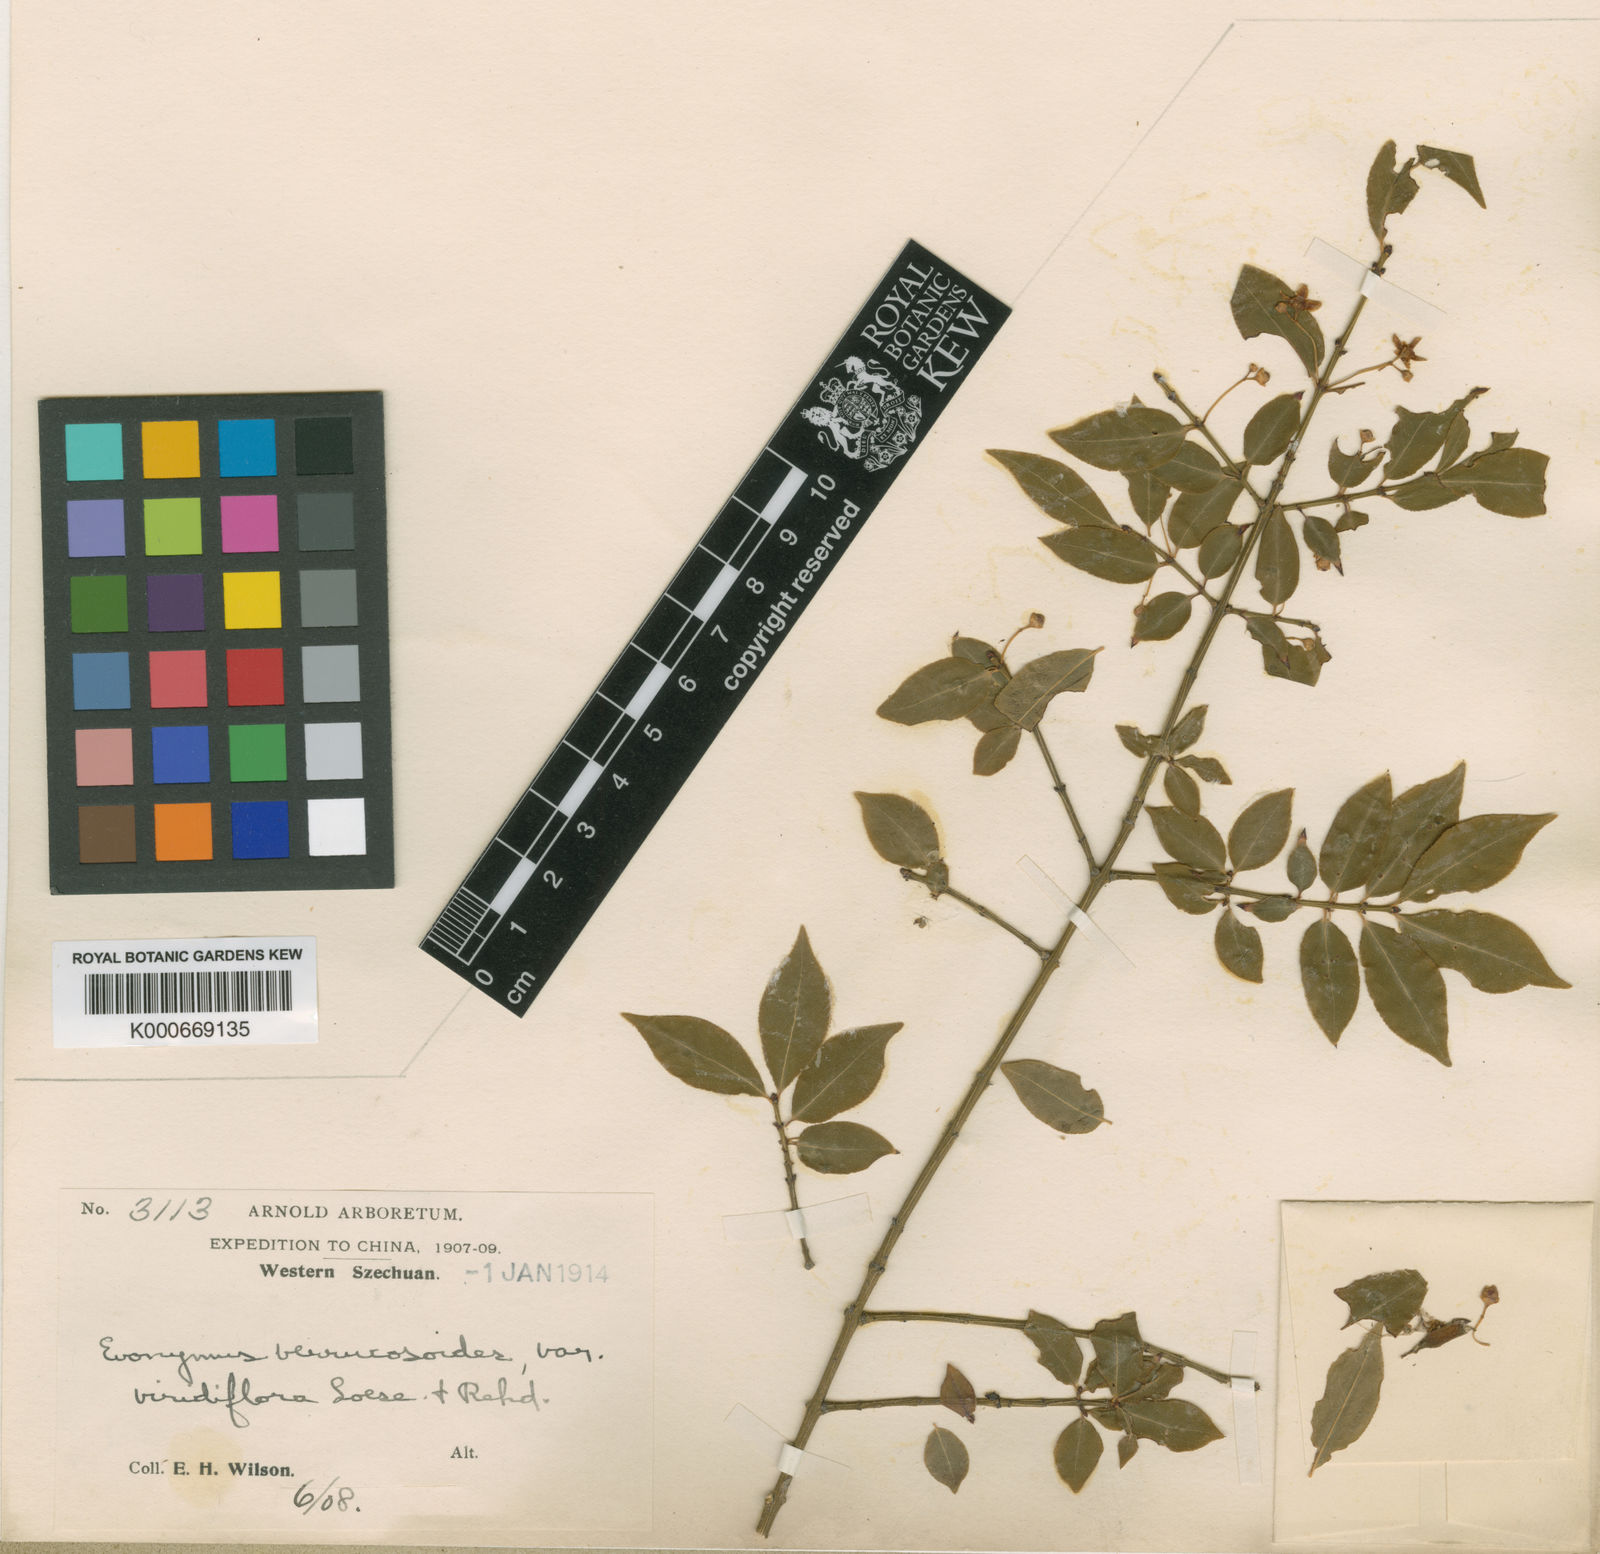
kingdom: Plantae
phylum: Tracheophyta
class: Magnoliopsida
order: Celastrales
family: Celastraceae
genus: Euonymus
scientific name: Euonymus verrucosoides
